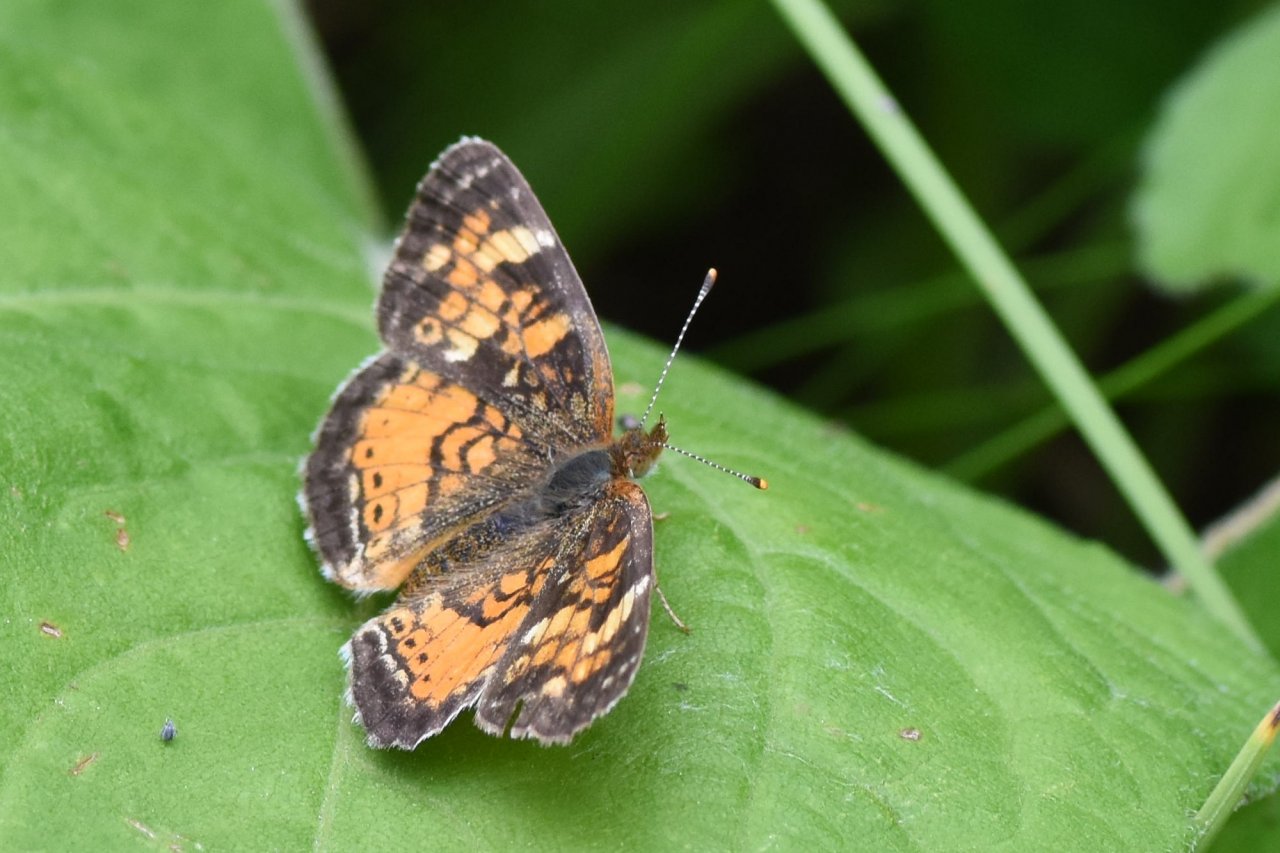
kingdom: Animalia
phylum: Arthropoda
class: Insecta
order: Lepidoptera
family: Nymphalidae
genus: Phyciodes
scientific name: Phyciodes tharos
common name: Northern Crescent
